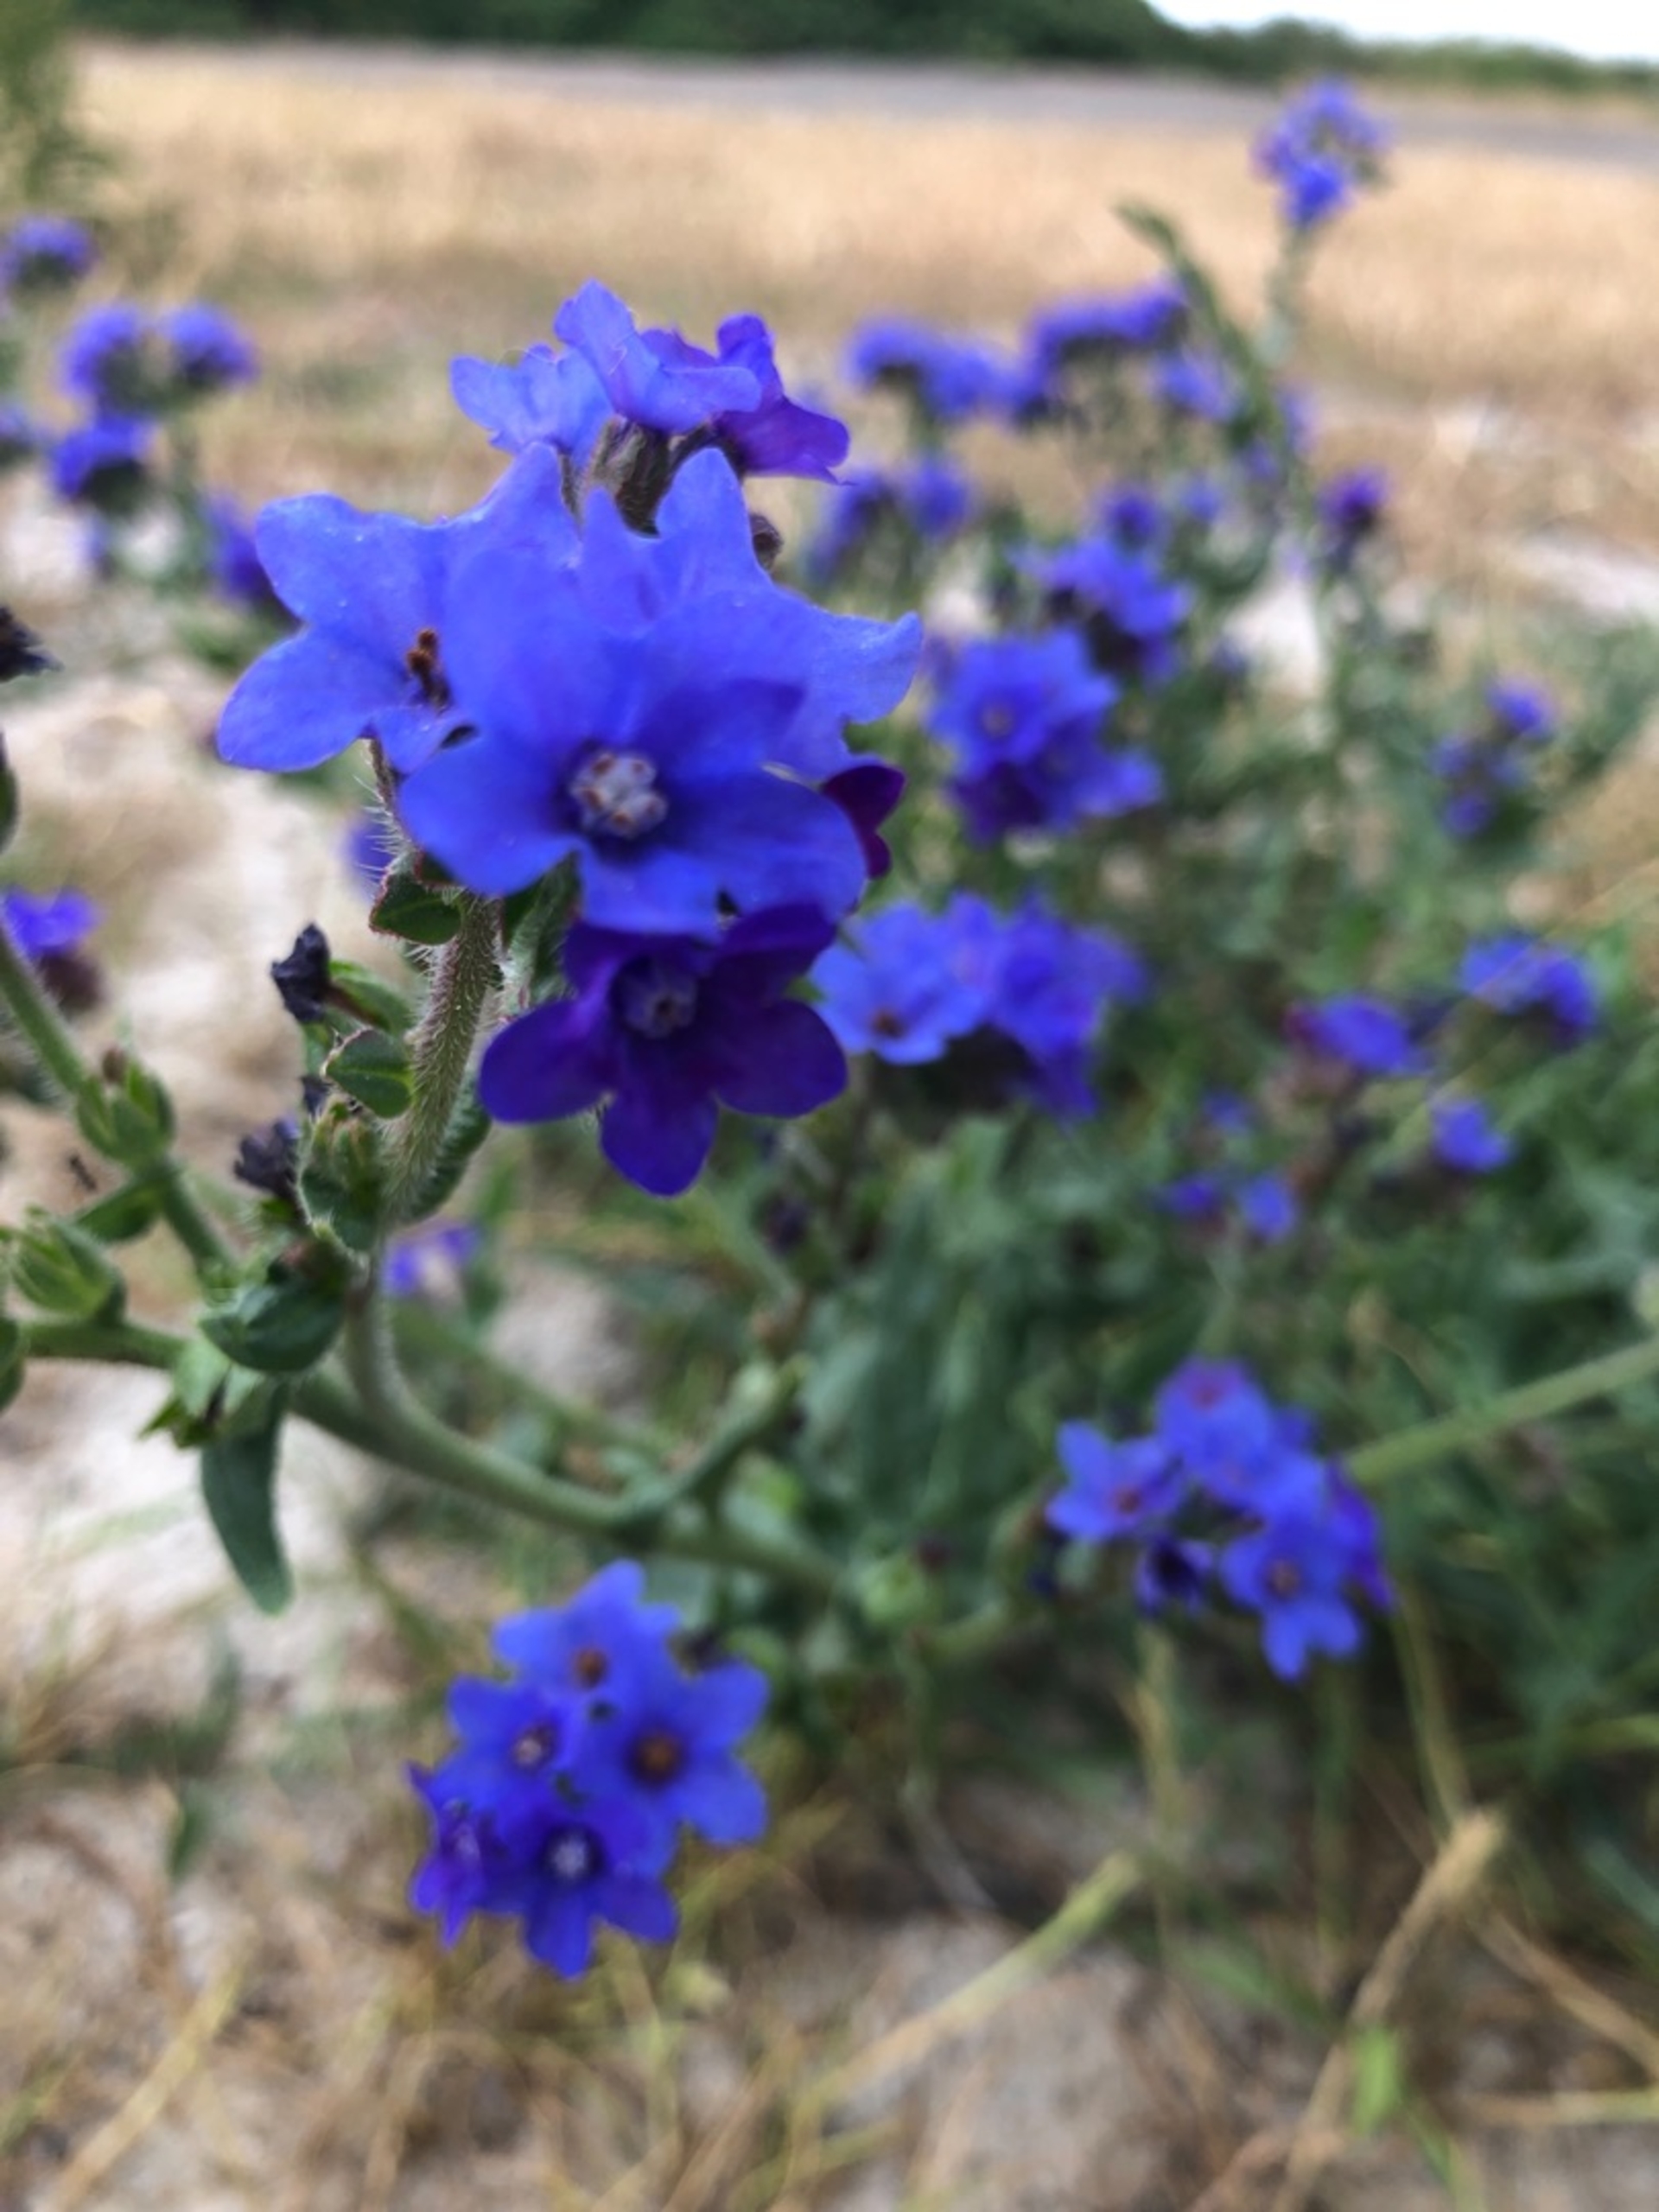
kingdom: Plantae
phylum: Tracheophyta
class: Magnoliopsida
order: Boraginales
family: Boraginaceae
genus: Anchusa
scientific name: Anchusa officinalis
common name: Læge-oksetunge
